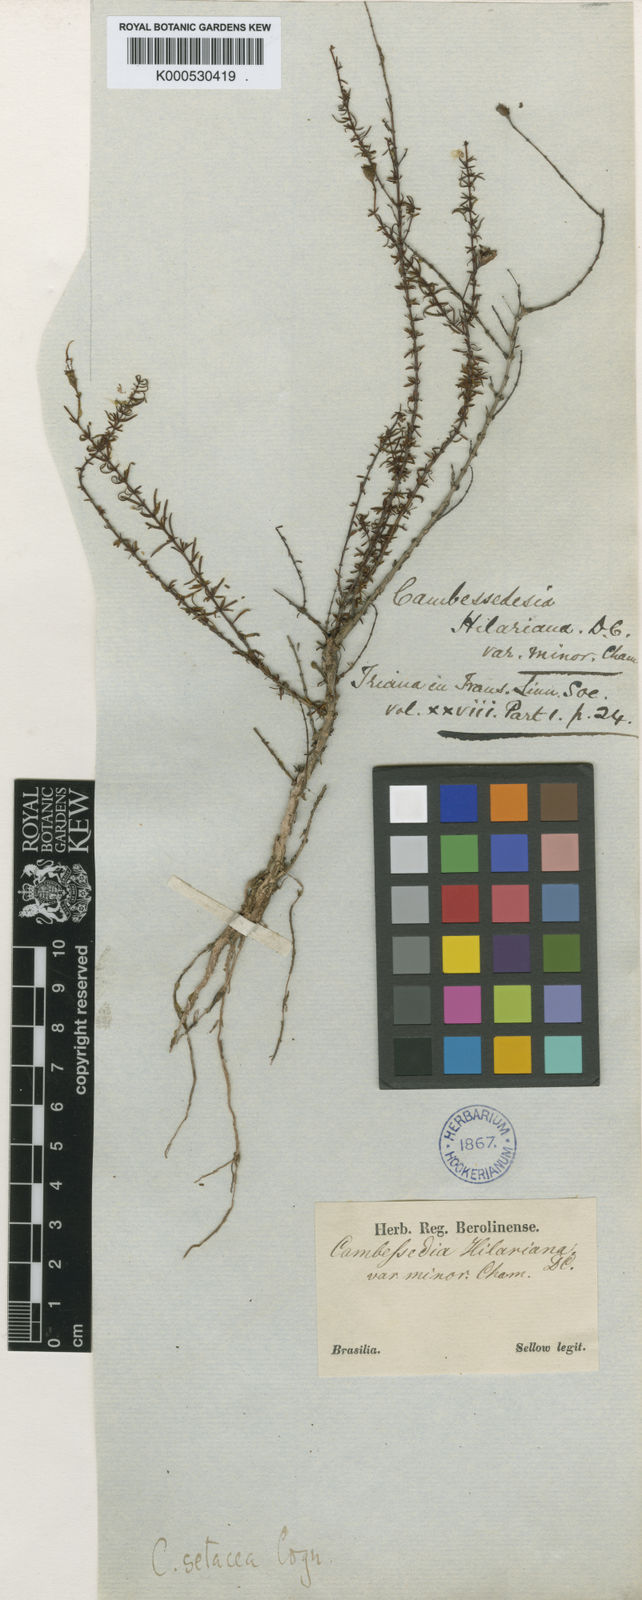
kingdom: Plantae
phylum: Tracheophyta
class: Magnoliopsida
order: Myrtales
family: Melastomataceae
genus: Cambessedesia
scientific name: Cambessedesia hilariana
